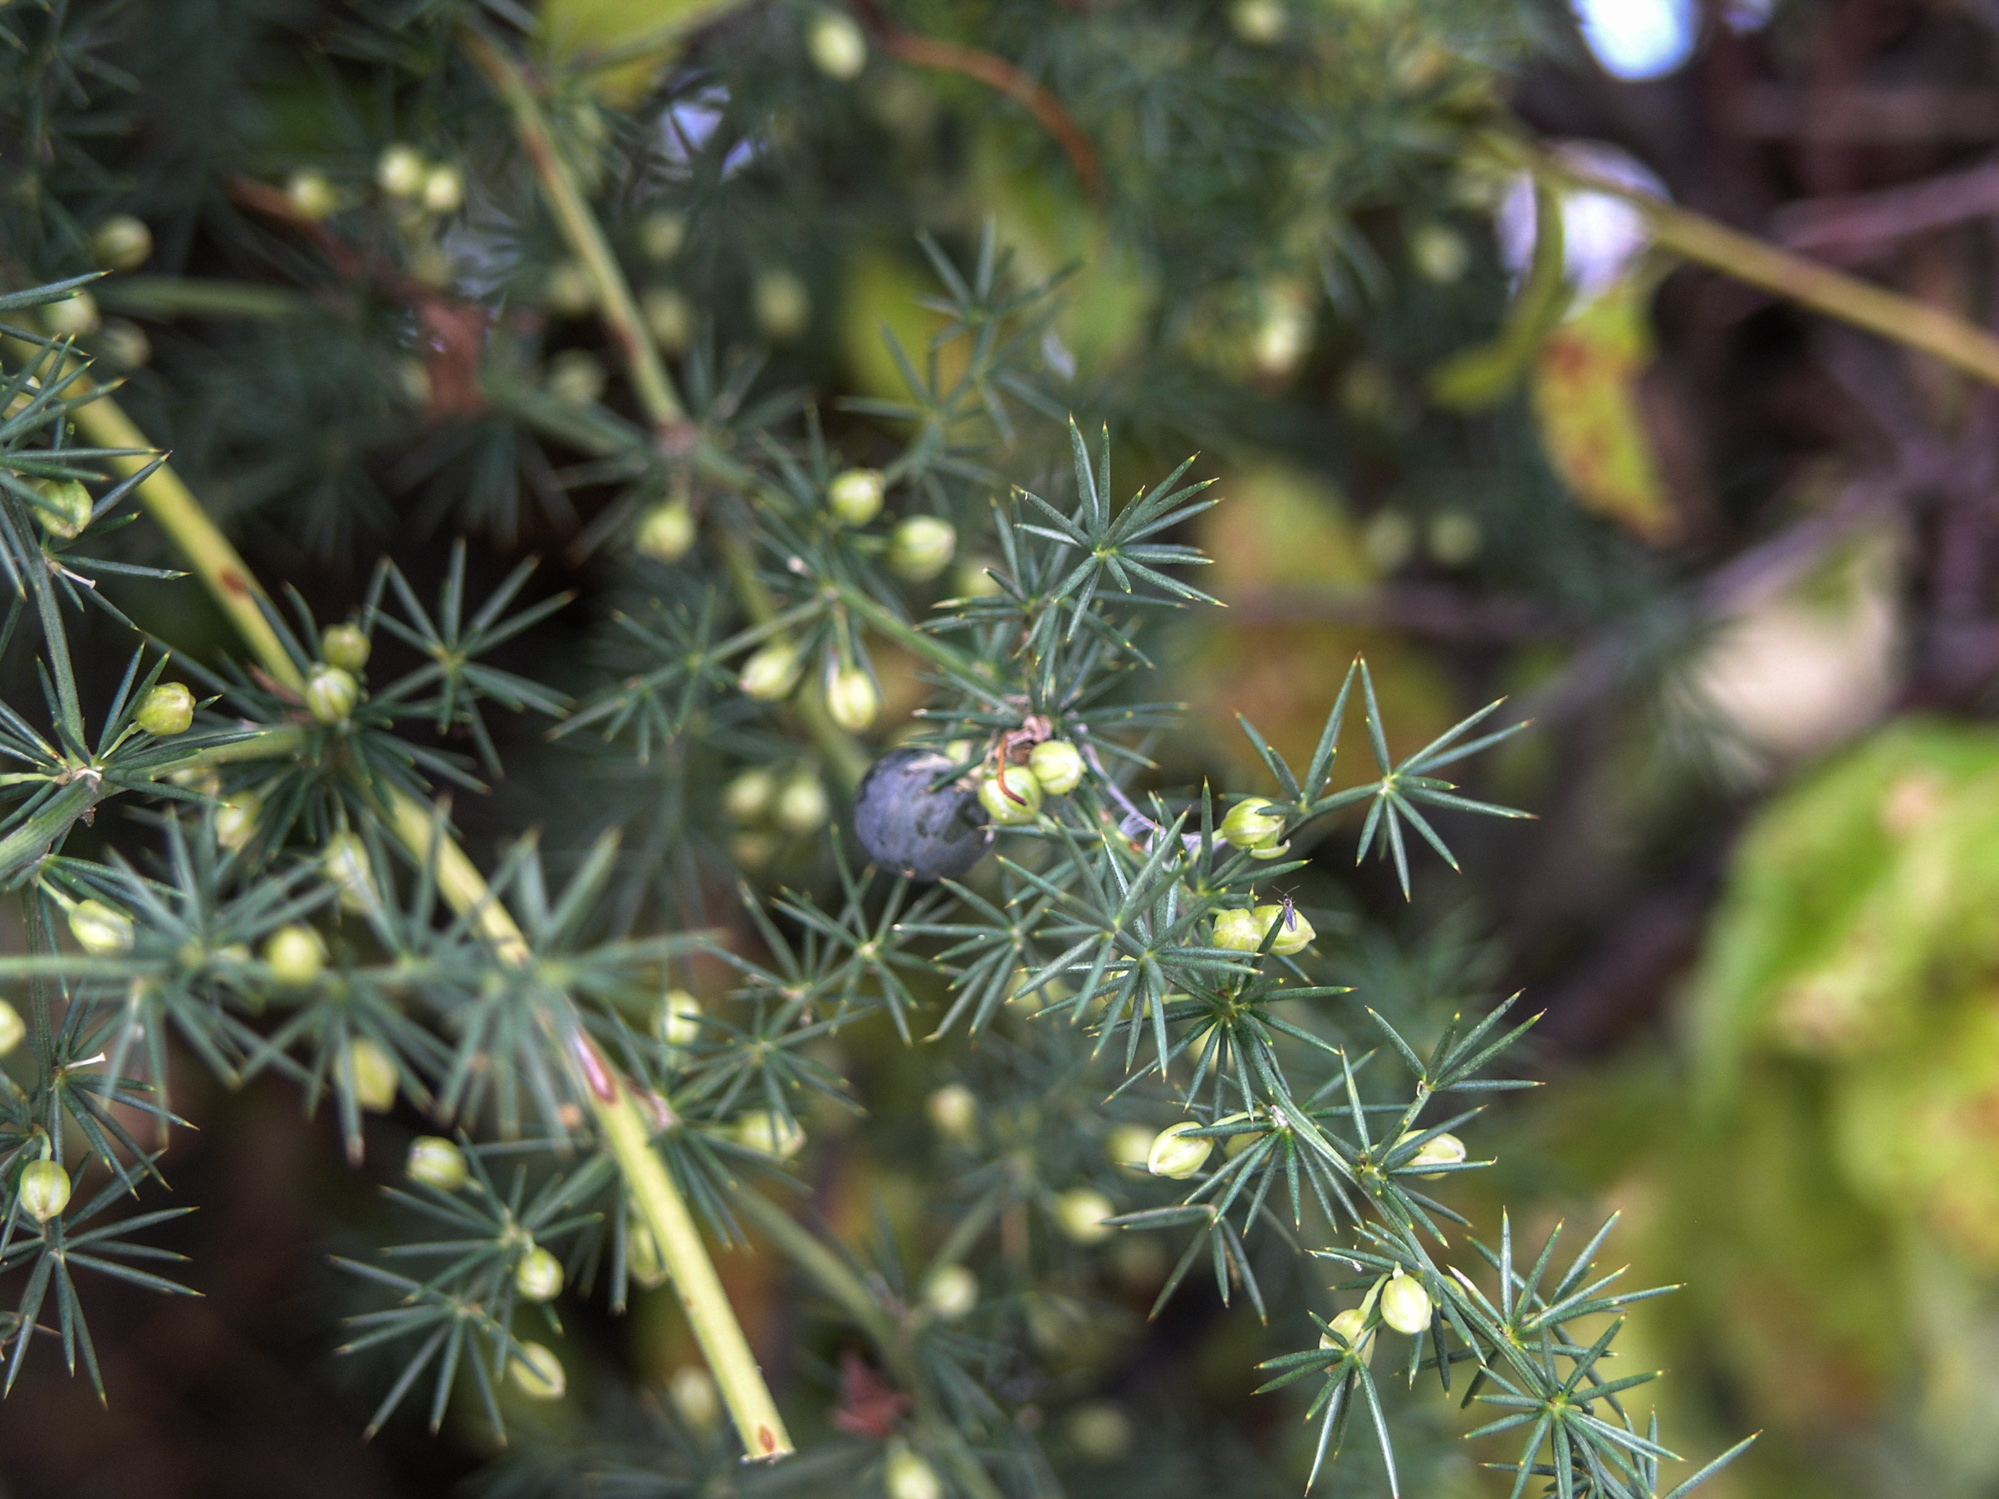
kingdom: Plantae
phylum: Tracheophyta
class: Liliopsida
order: Asparagales
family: Asparagaceae
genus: Asparagus
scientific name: Asparagus aphyllus
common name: Mediterranean asparagus
